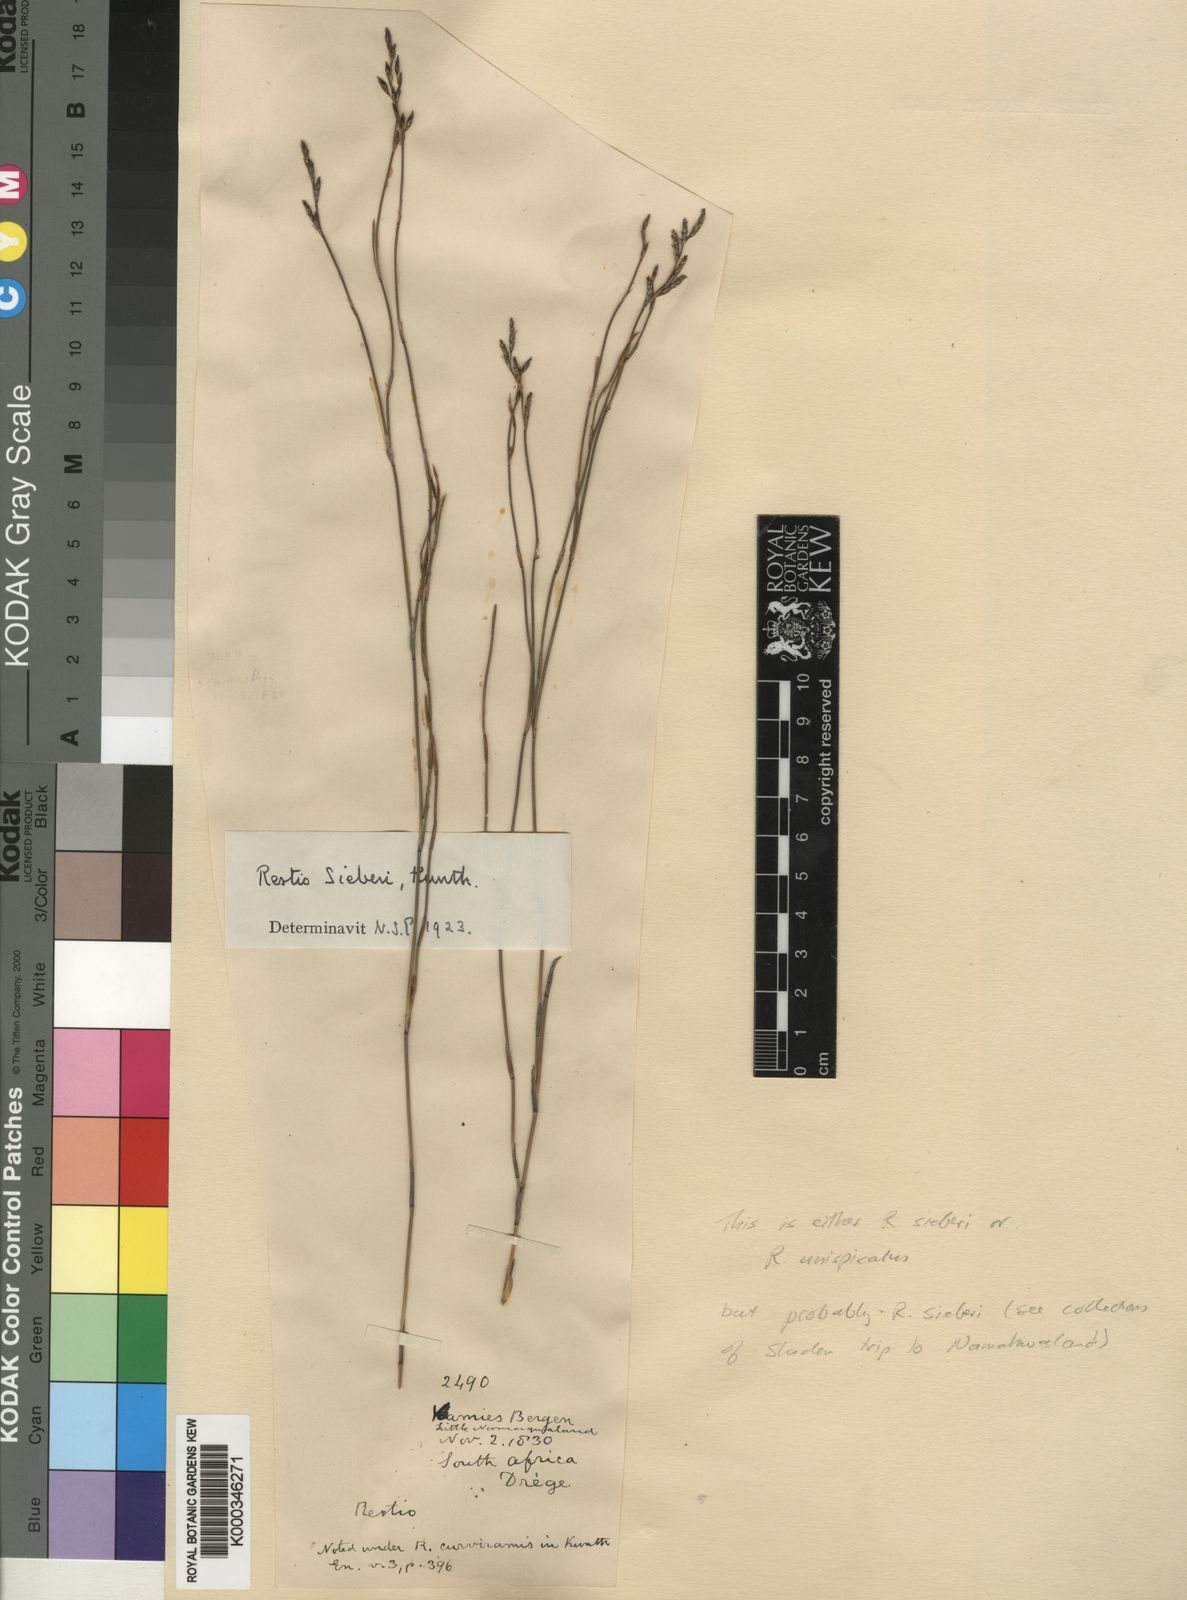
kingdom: Plantae
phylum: Tracheophyta
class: Liliopsida
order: Poales
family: Restionaceae
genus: Restio
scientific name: Restio sieberi
